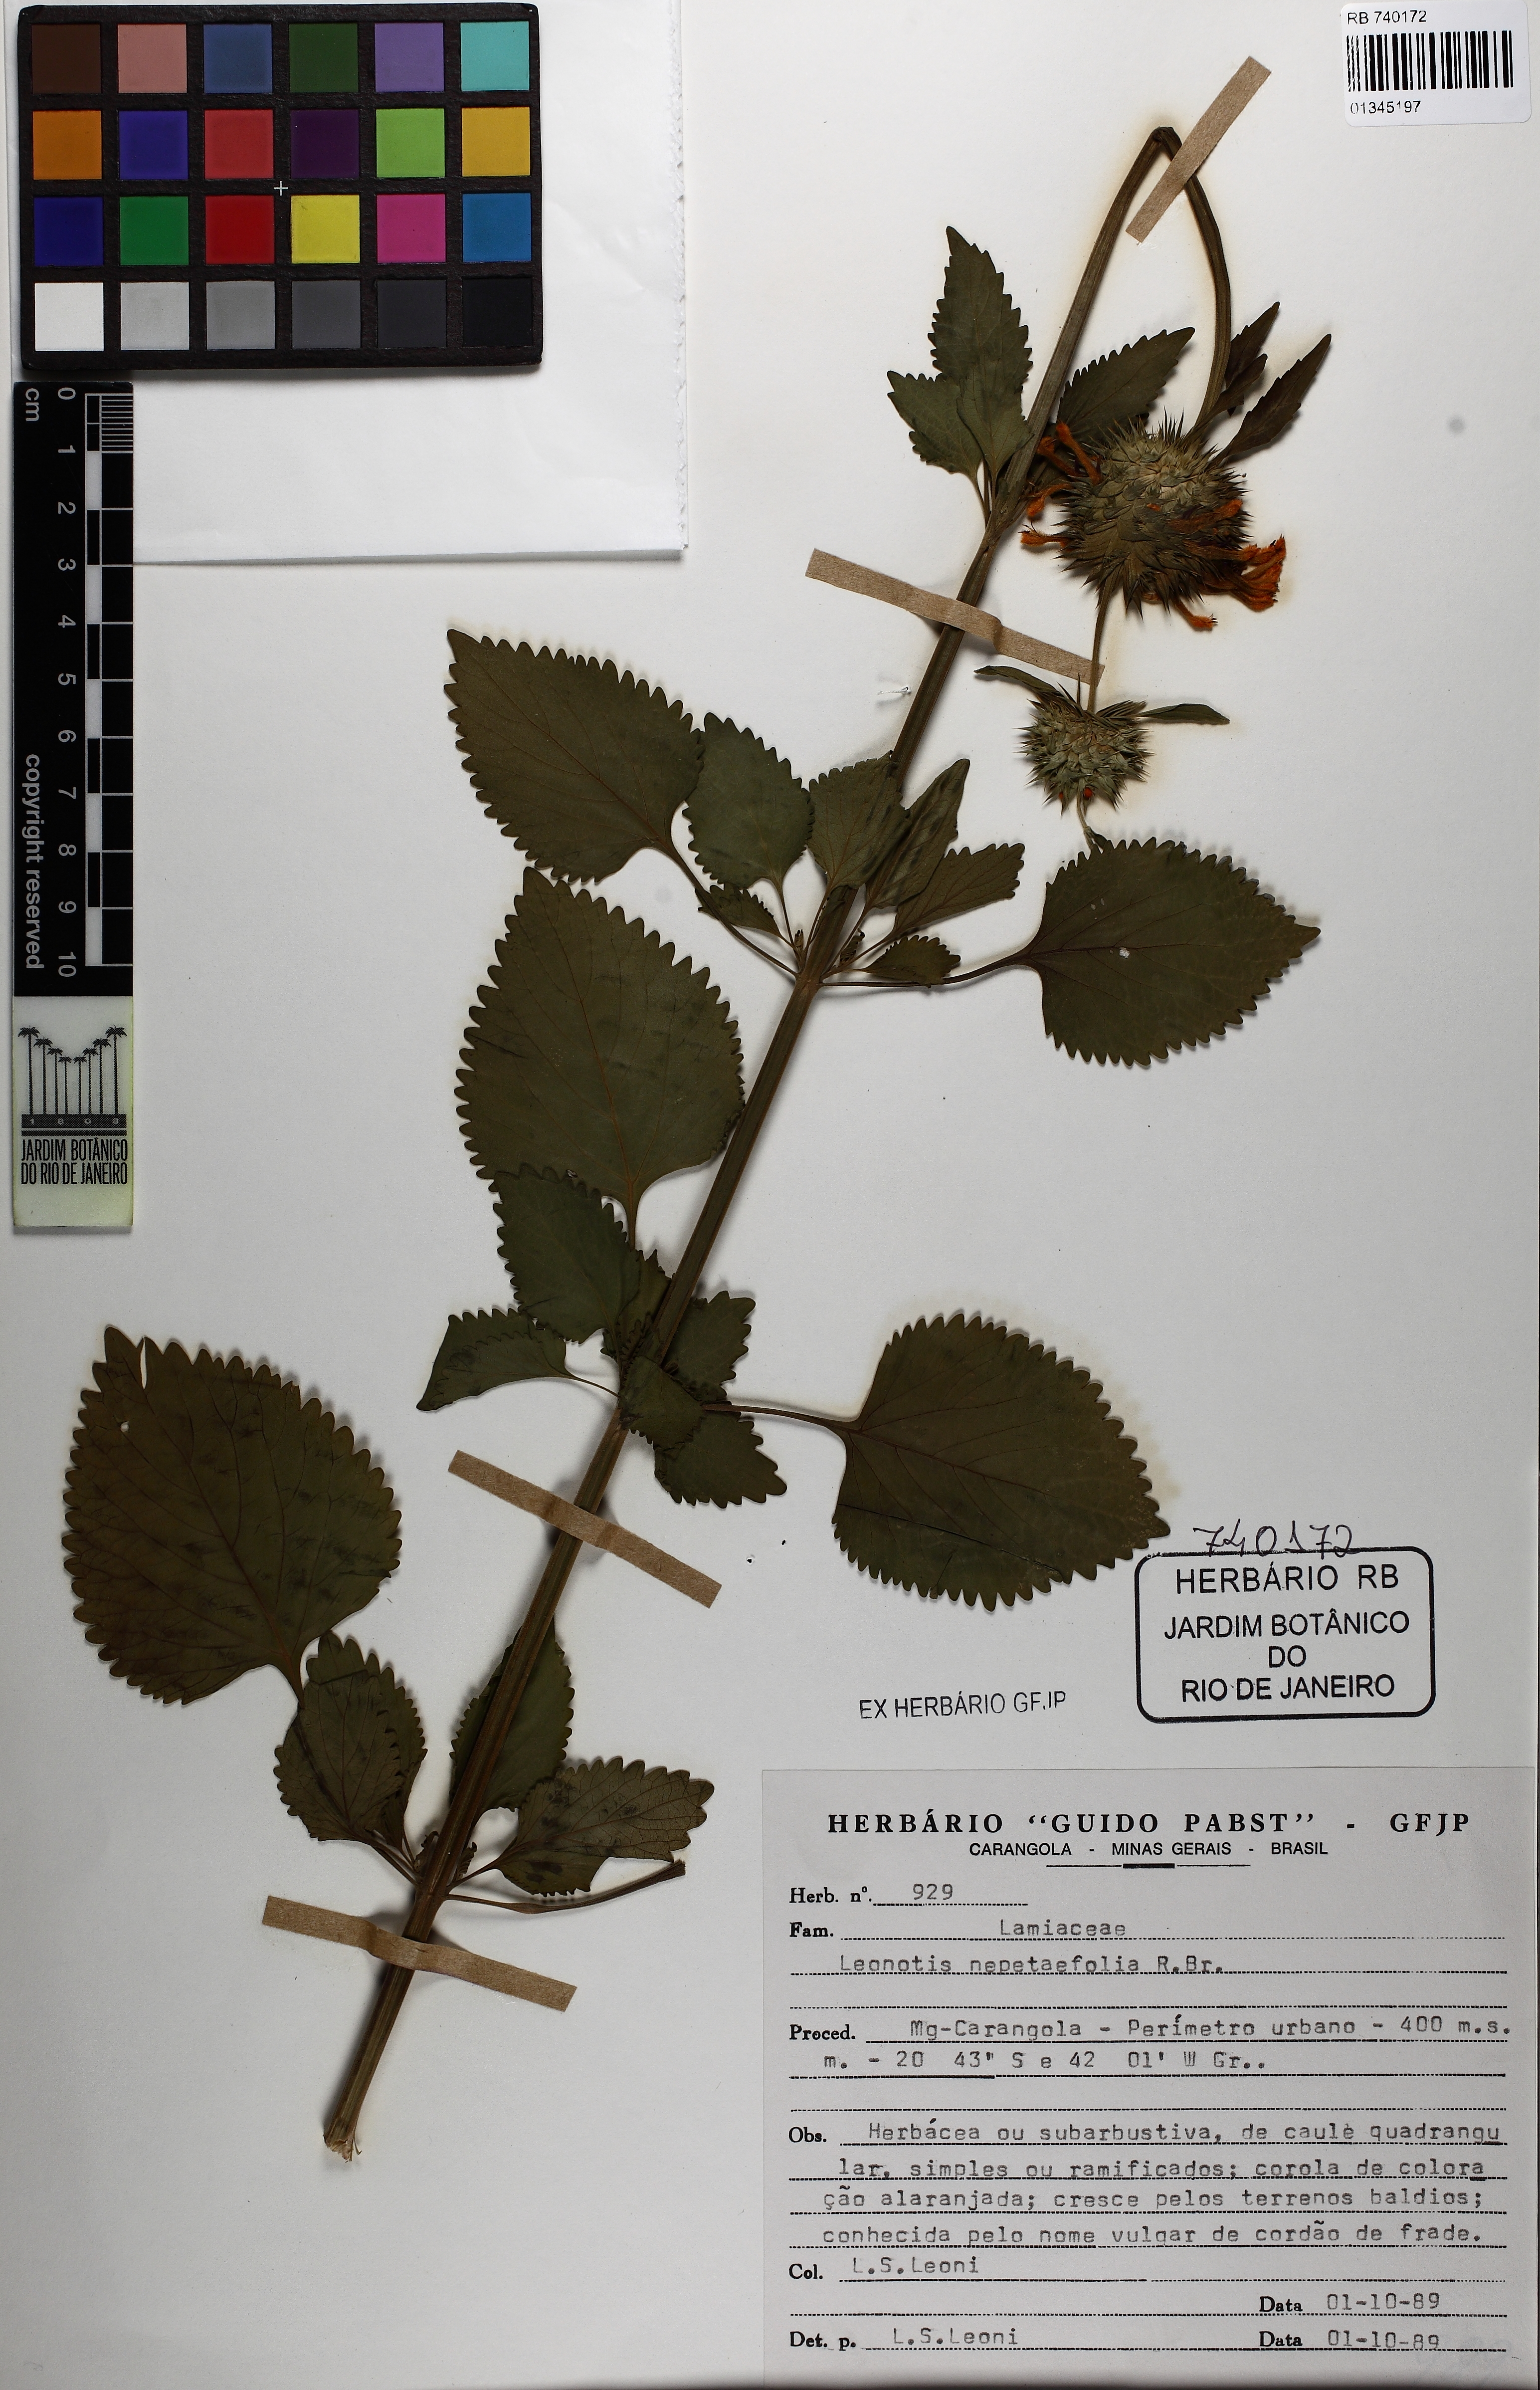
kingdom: Plantae
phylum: Tracheophyta
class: Magnoliopsida
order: Lamiales
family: Lamiaceae
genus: Leonotis
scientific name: Leonotis nepetifolia
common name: Christmas candlestick
